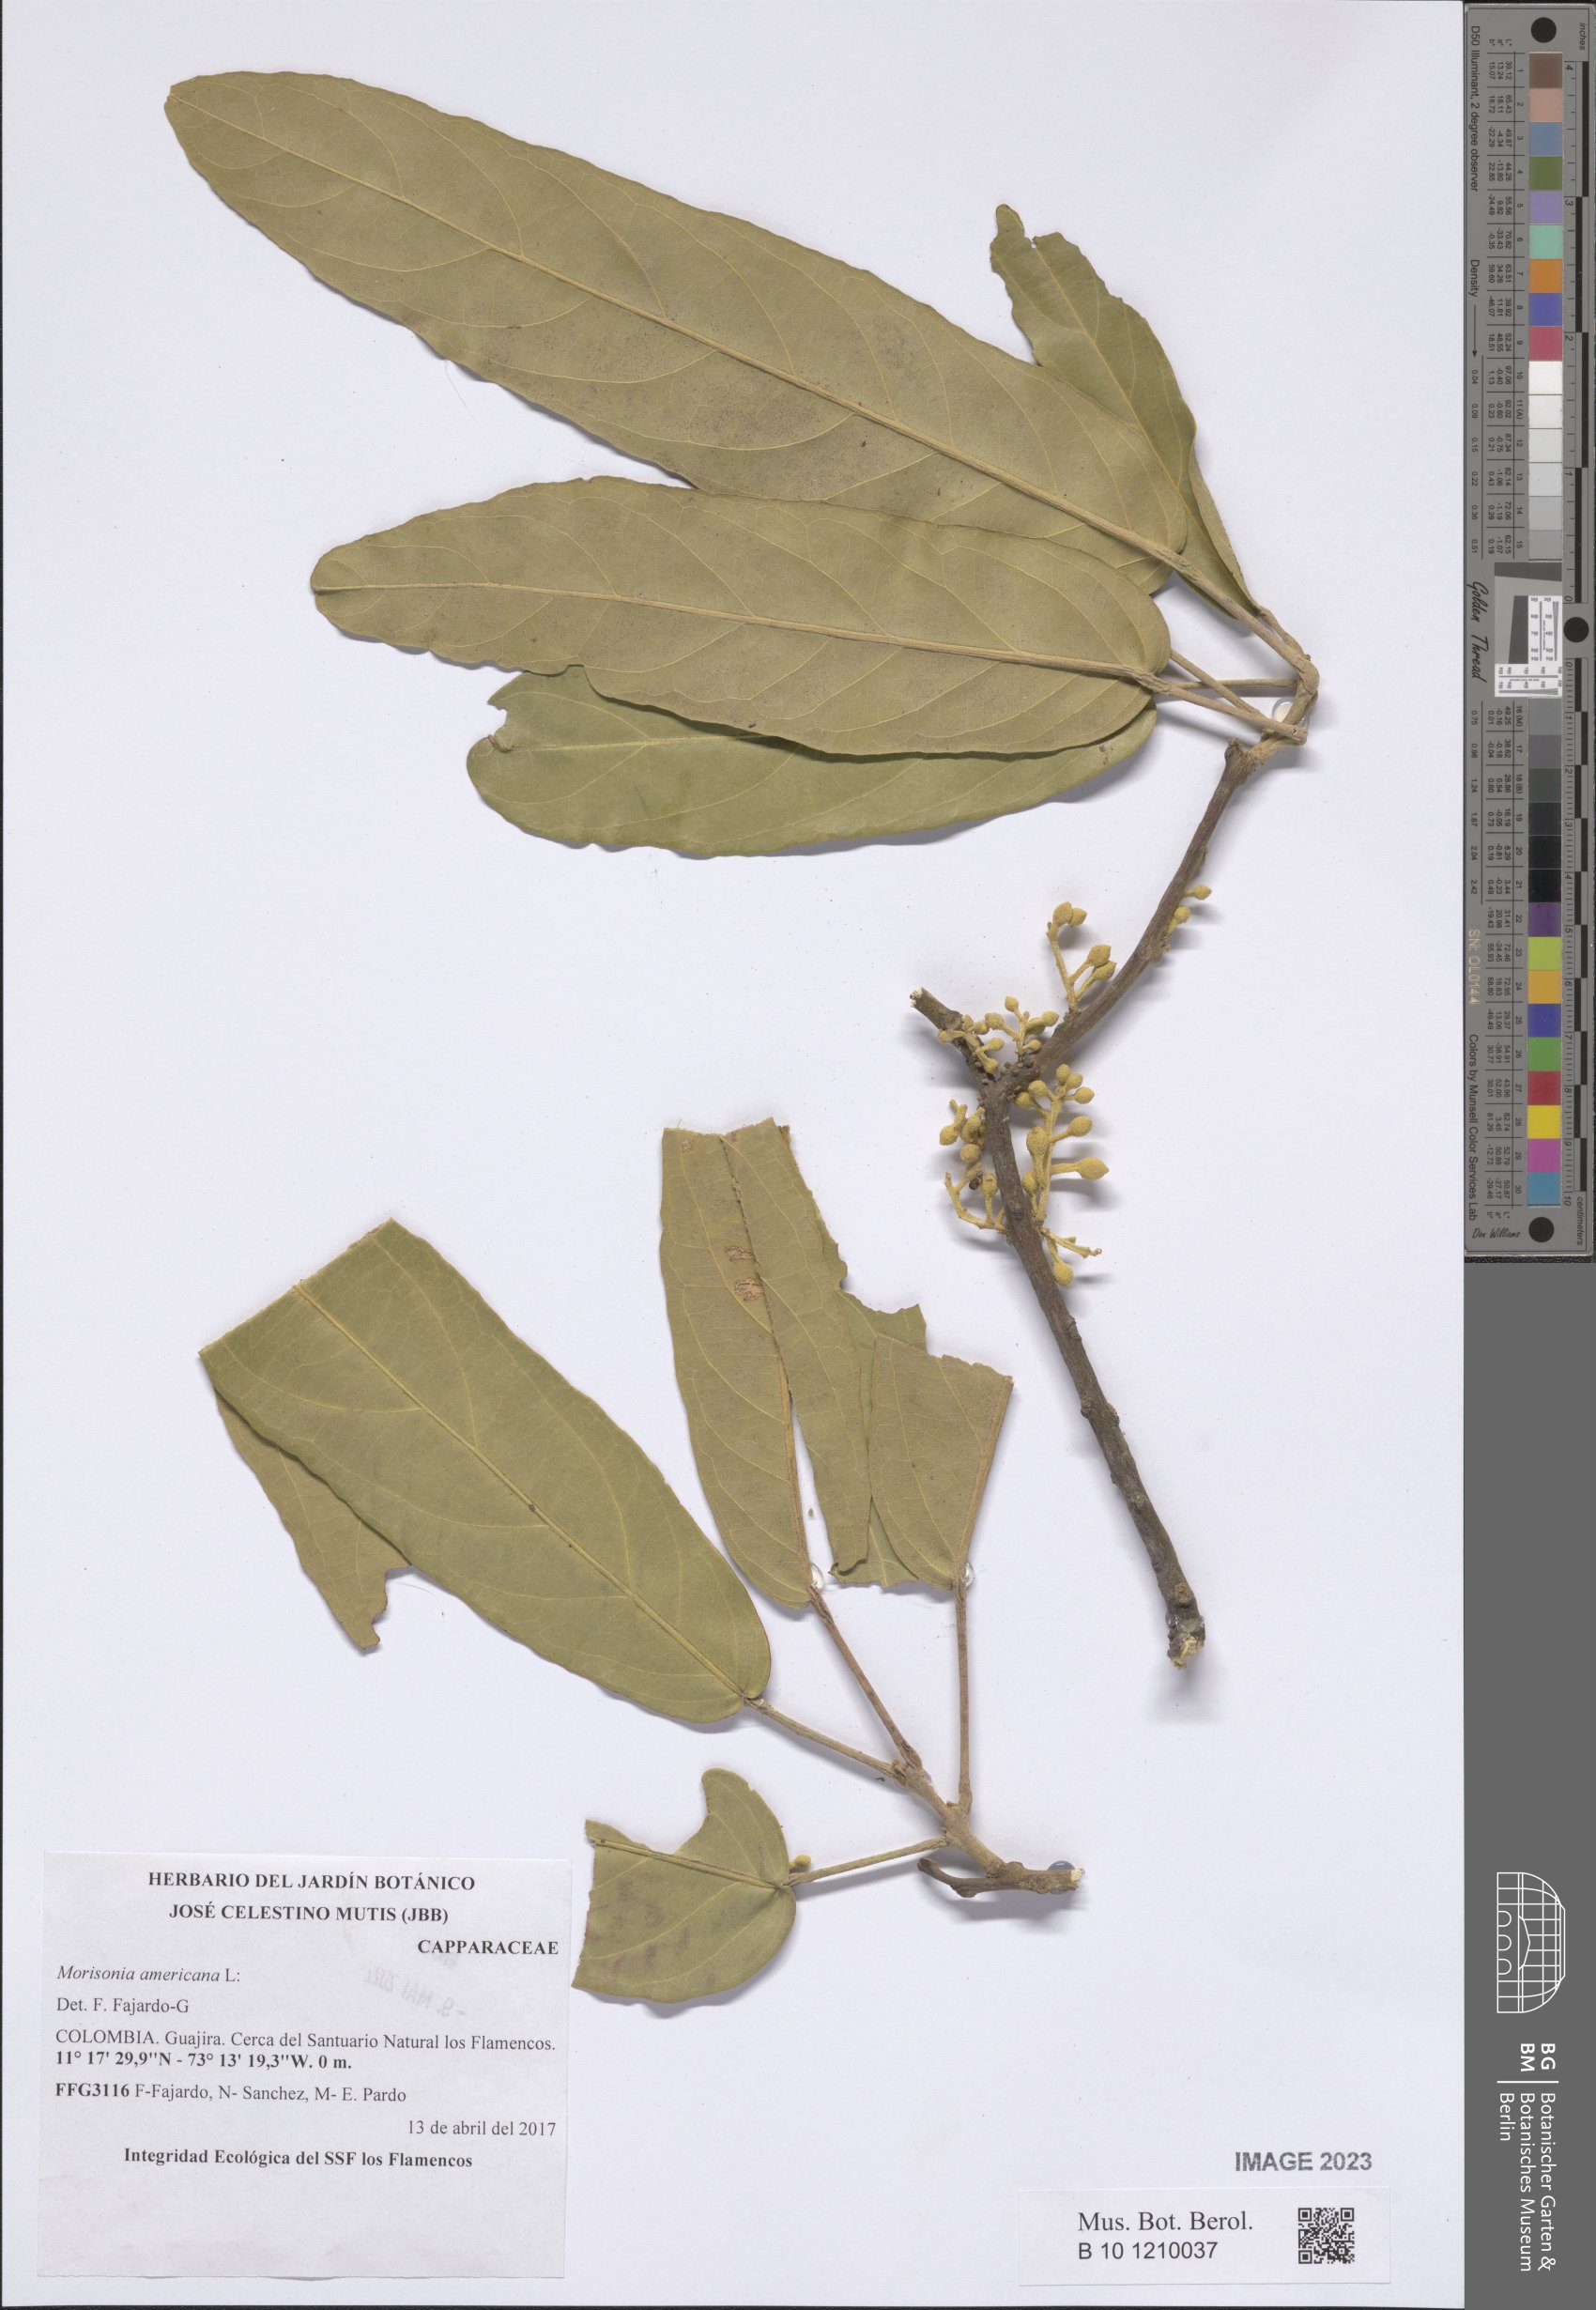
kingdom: Plantae
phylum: Tracheophyta
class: Magnoliopsida
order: Brassicales
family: Capparaceae
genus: Morisonia
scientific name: Morisonia americana
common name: Wild mesple
